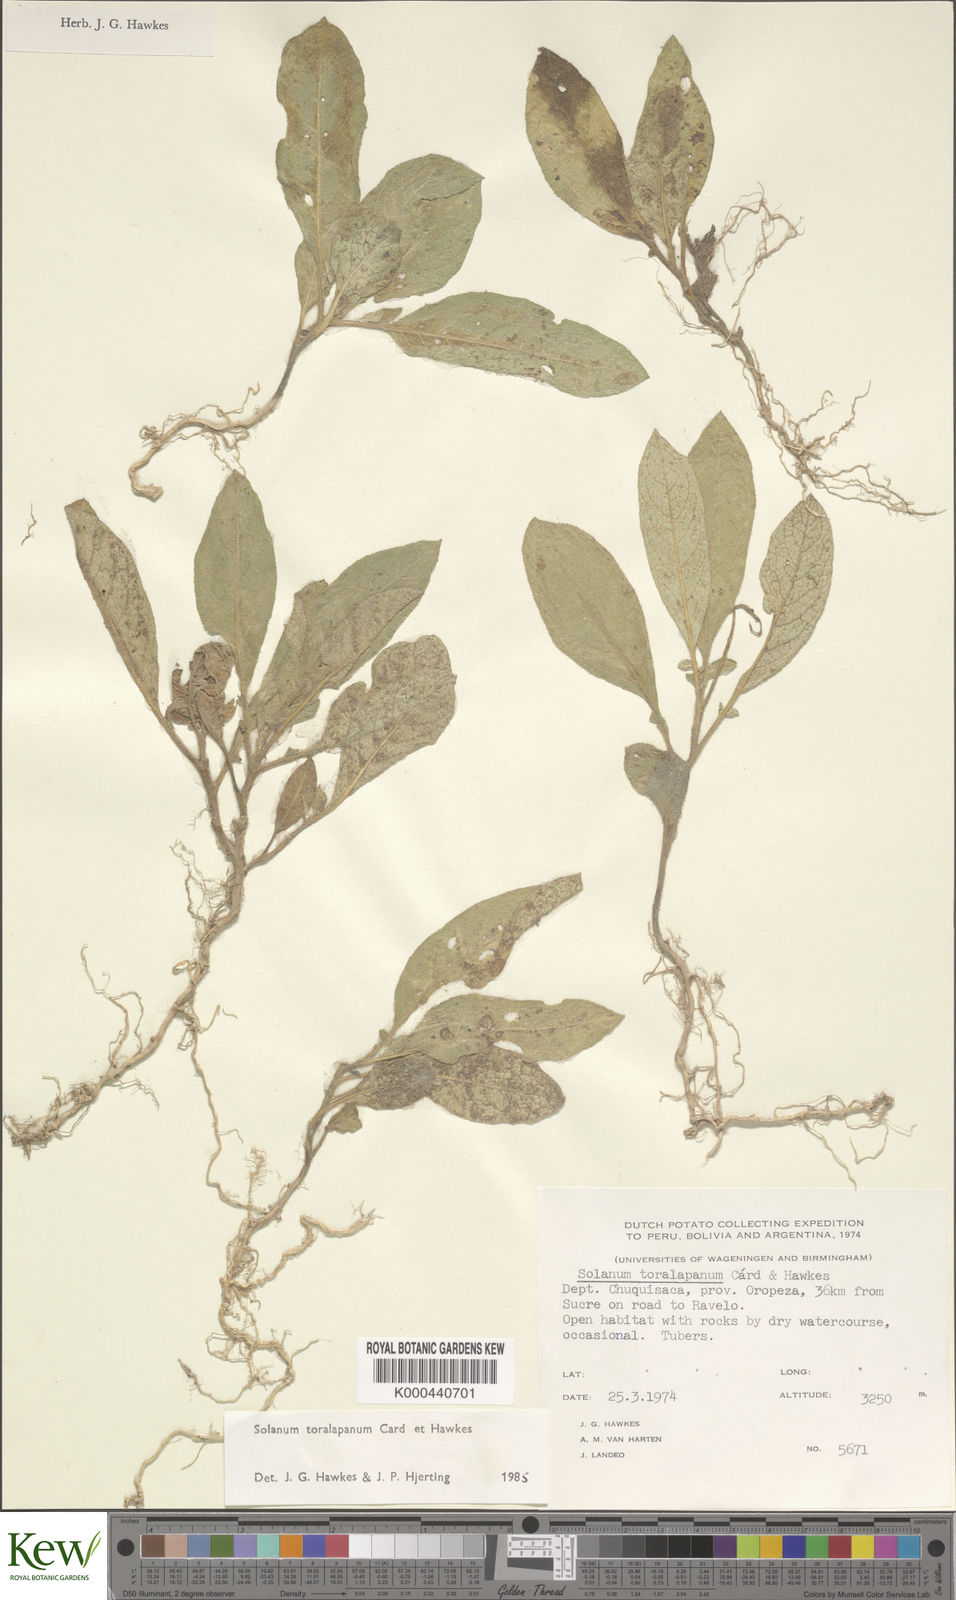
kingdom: Plantae
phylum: Tracheophyta
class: Magnoliopsida
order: Solanales
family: Solanaceae
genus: Solanum
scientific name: Solanum boliviense
